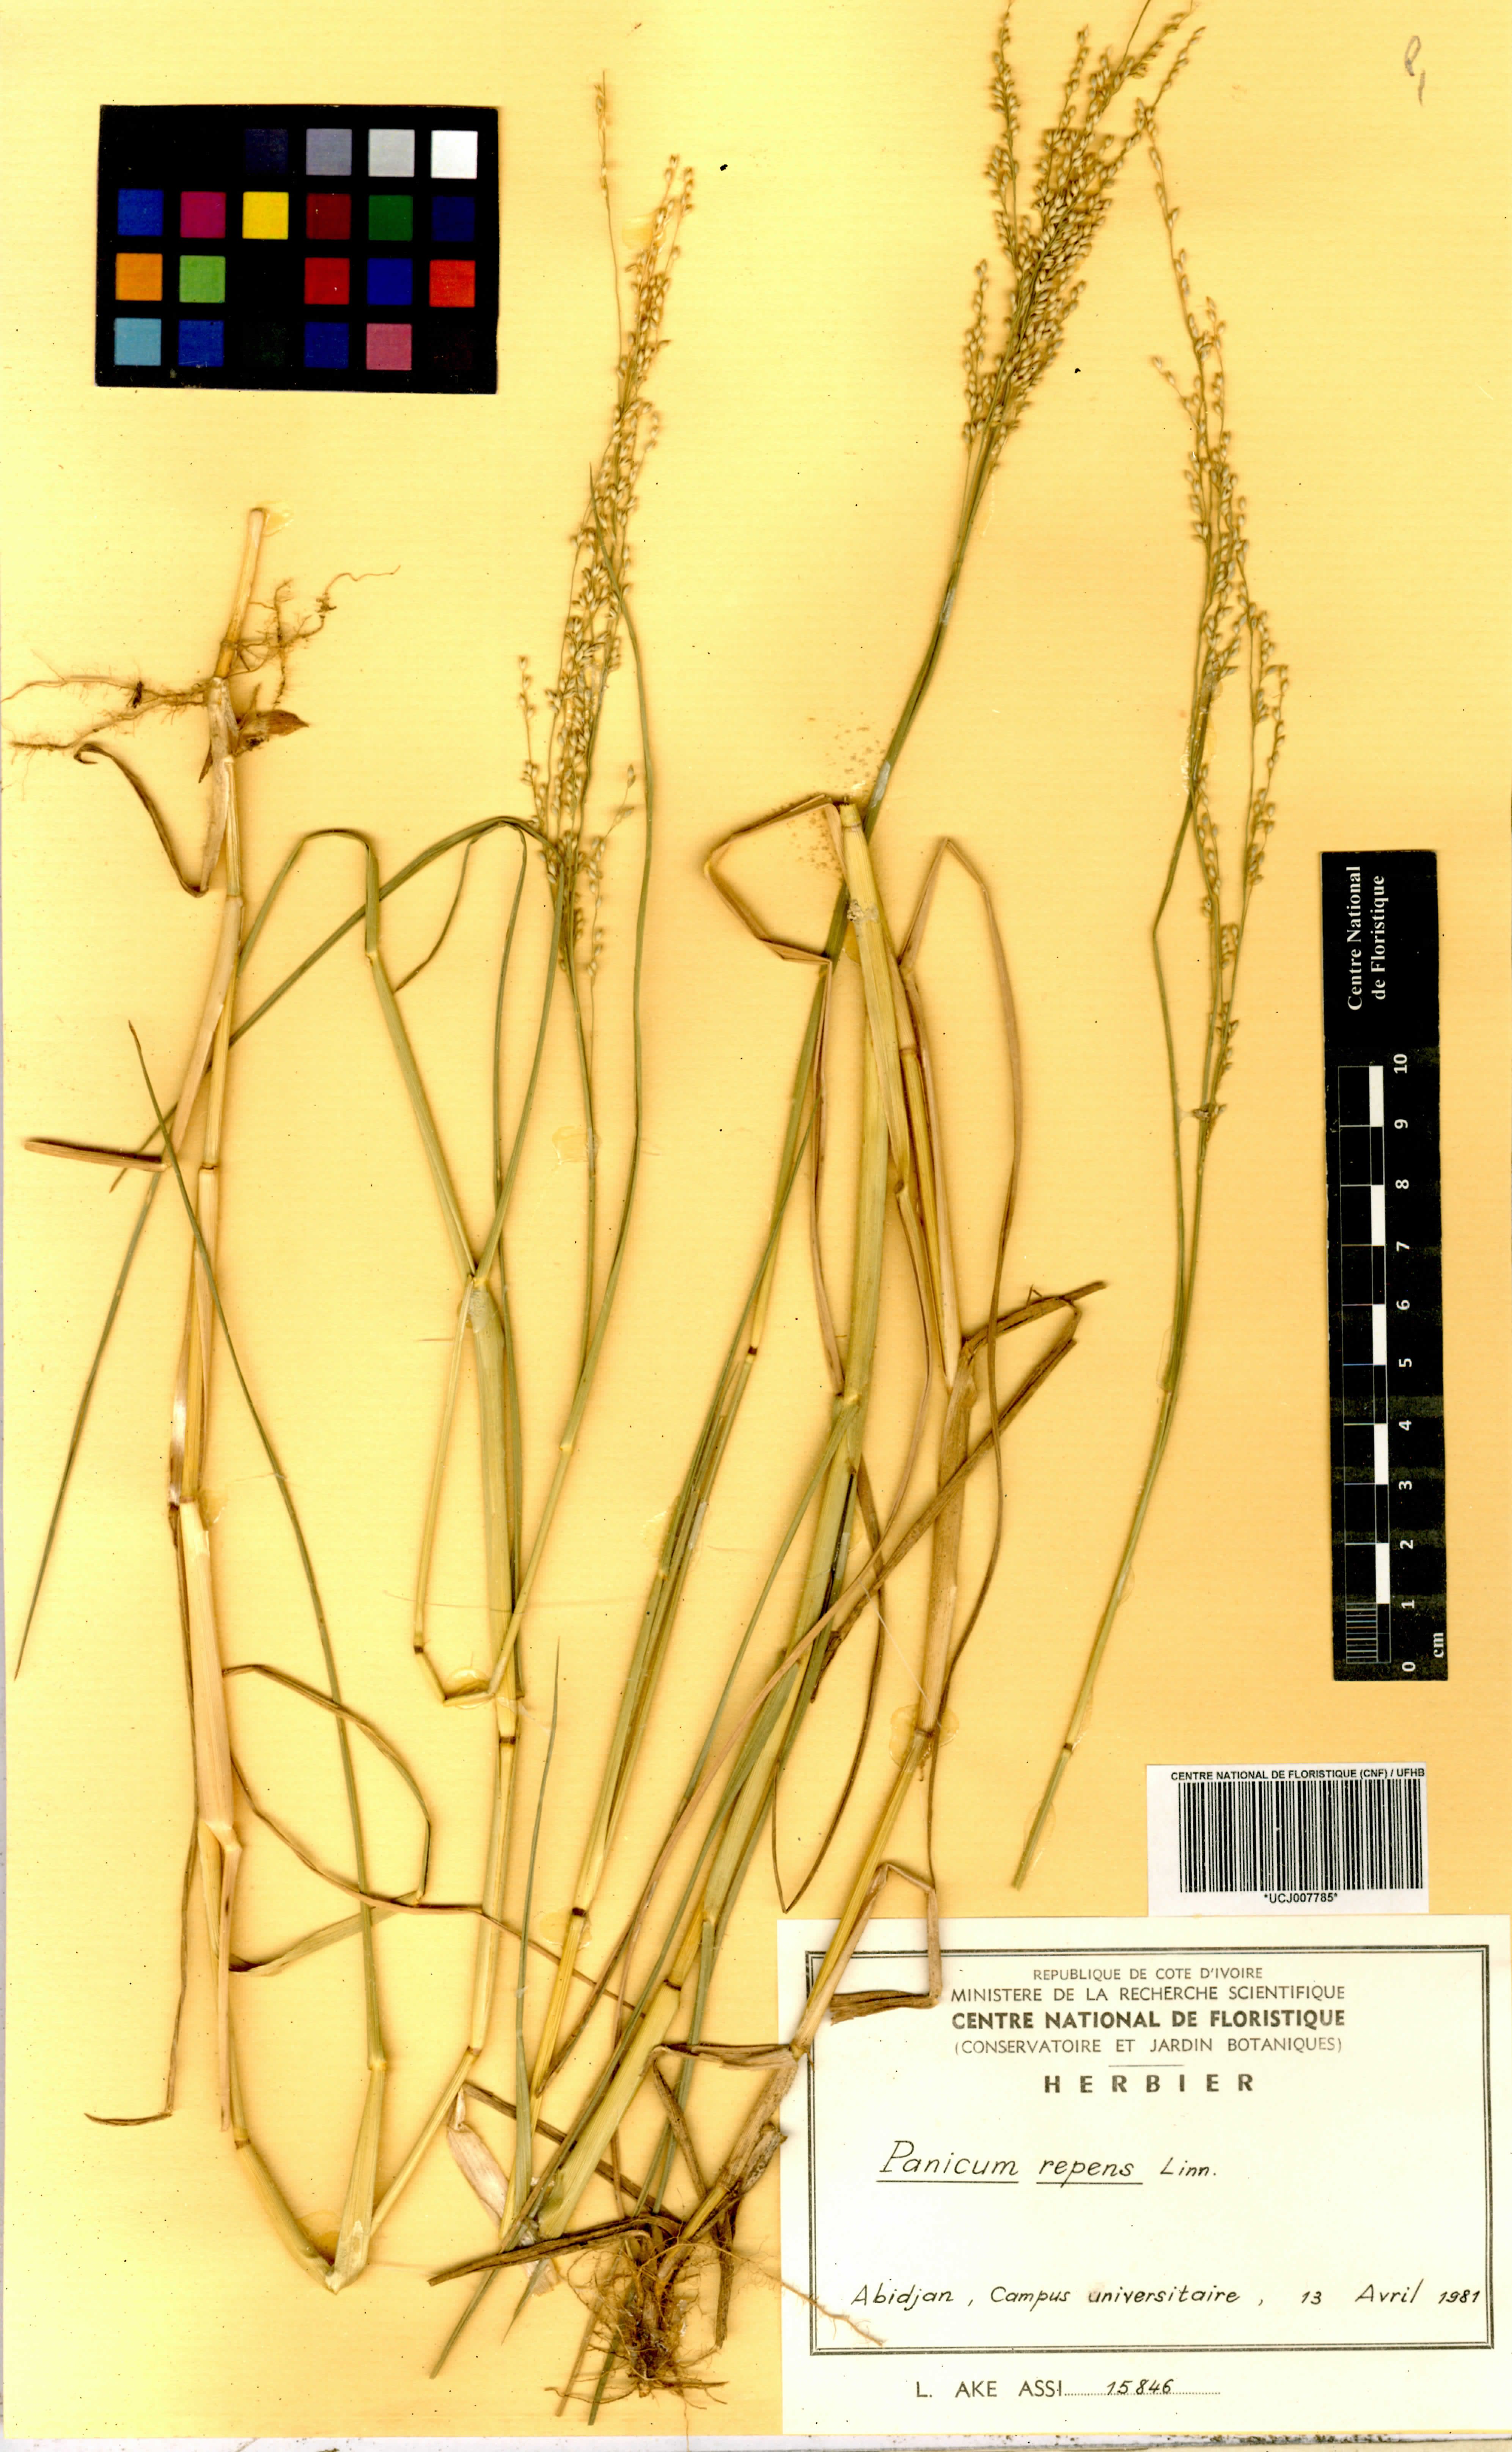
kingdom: Plantae
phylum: Tracheophyta
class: Liliopsida
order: Poales
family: Poaceae
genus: Panicum
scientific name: Panicum repens
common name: Torpedo grass
